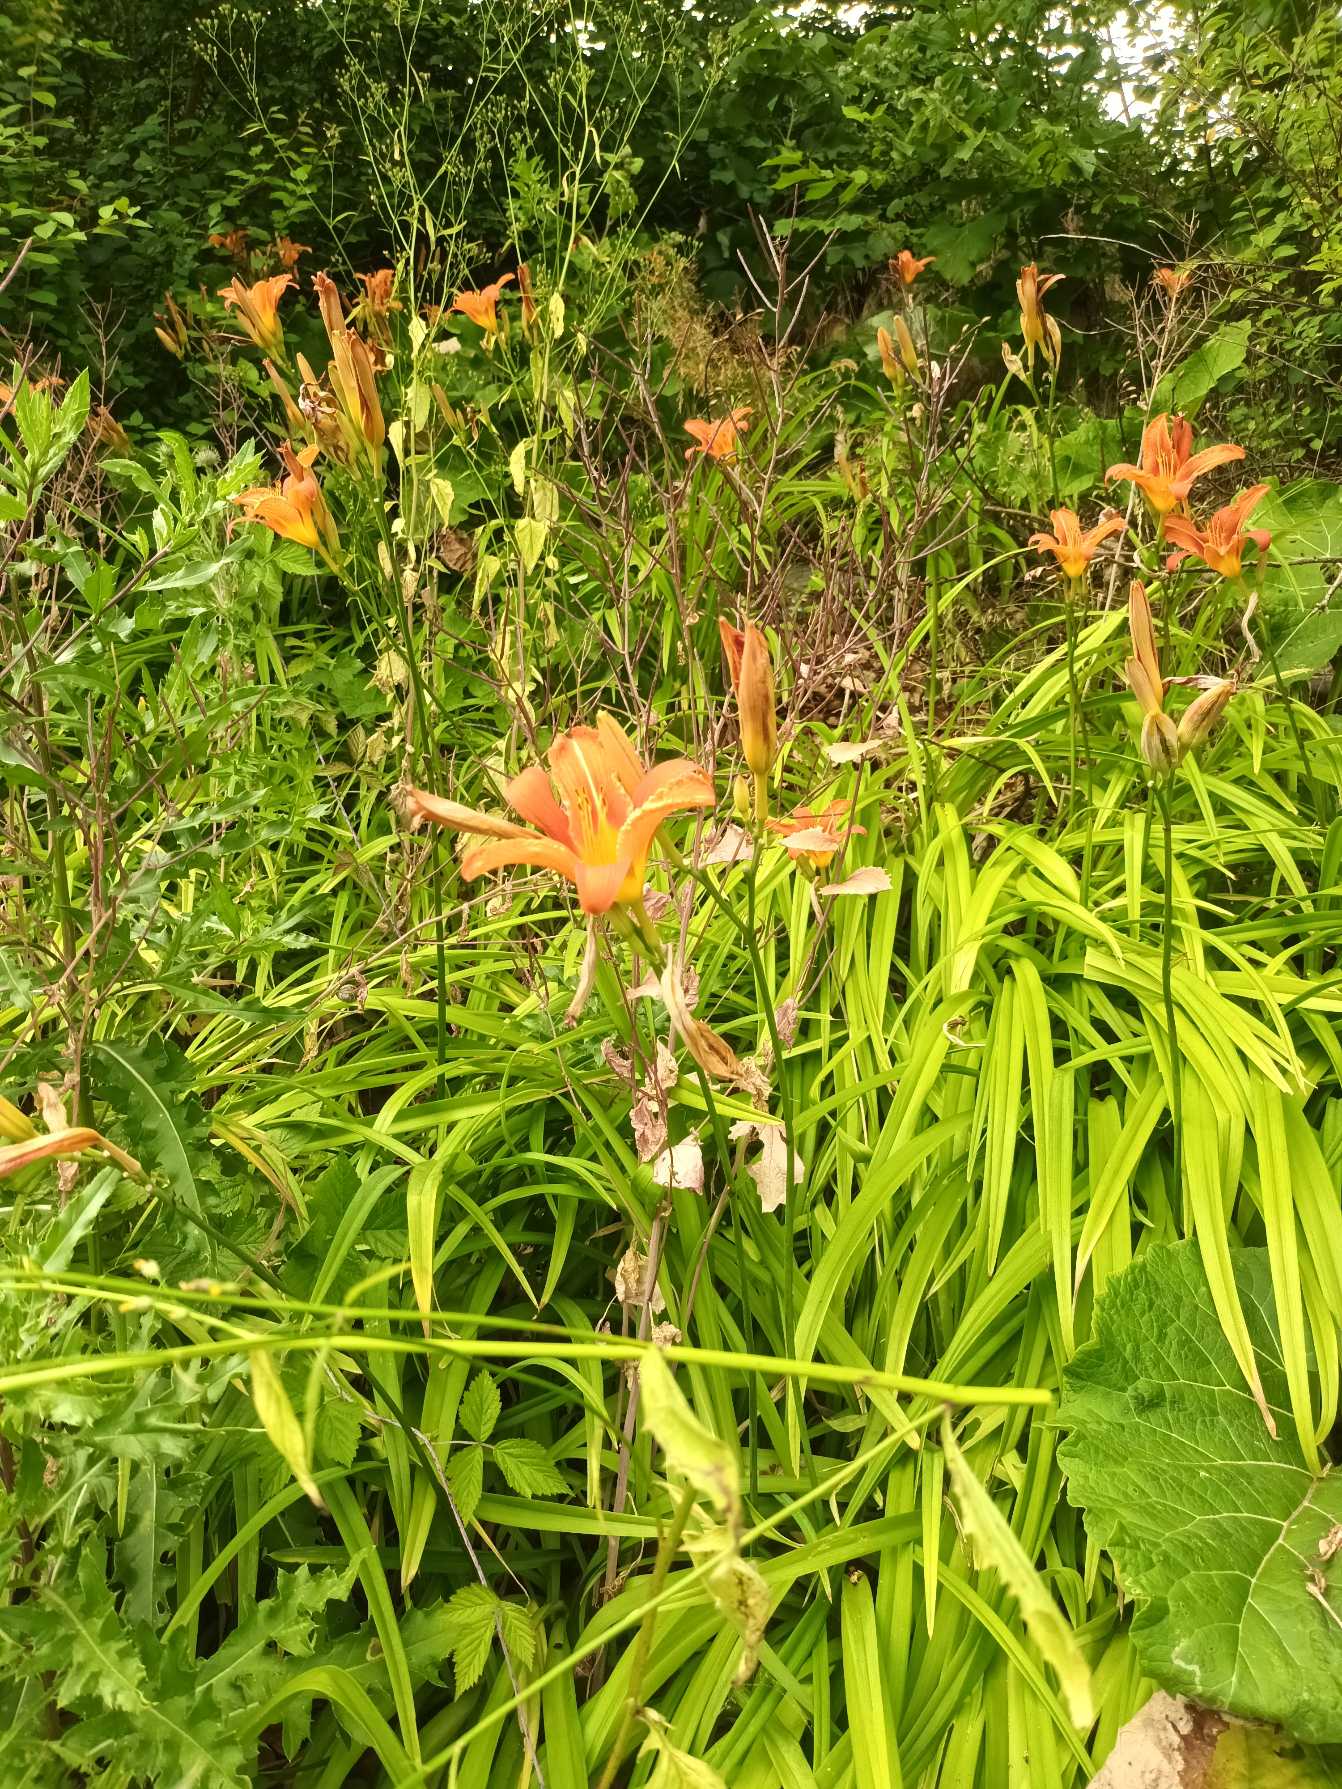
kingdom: Plantae
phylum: Tracheophyta
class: Liliopsida
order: Asparagales
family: Asphodelaceae
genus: Hemerocallis
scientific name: Hemerocallis fulva
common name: Rødgul daglilje
